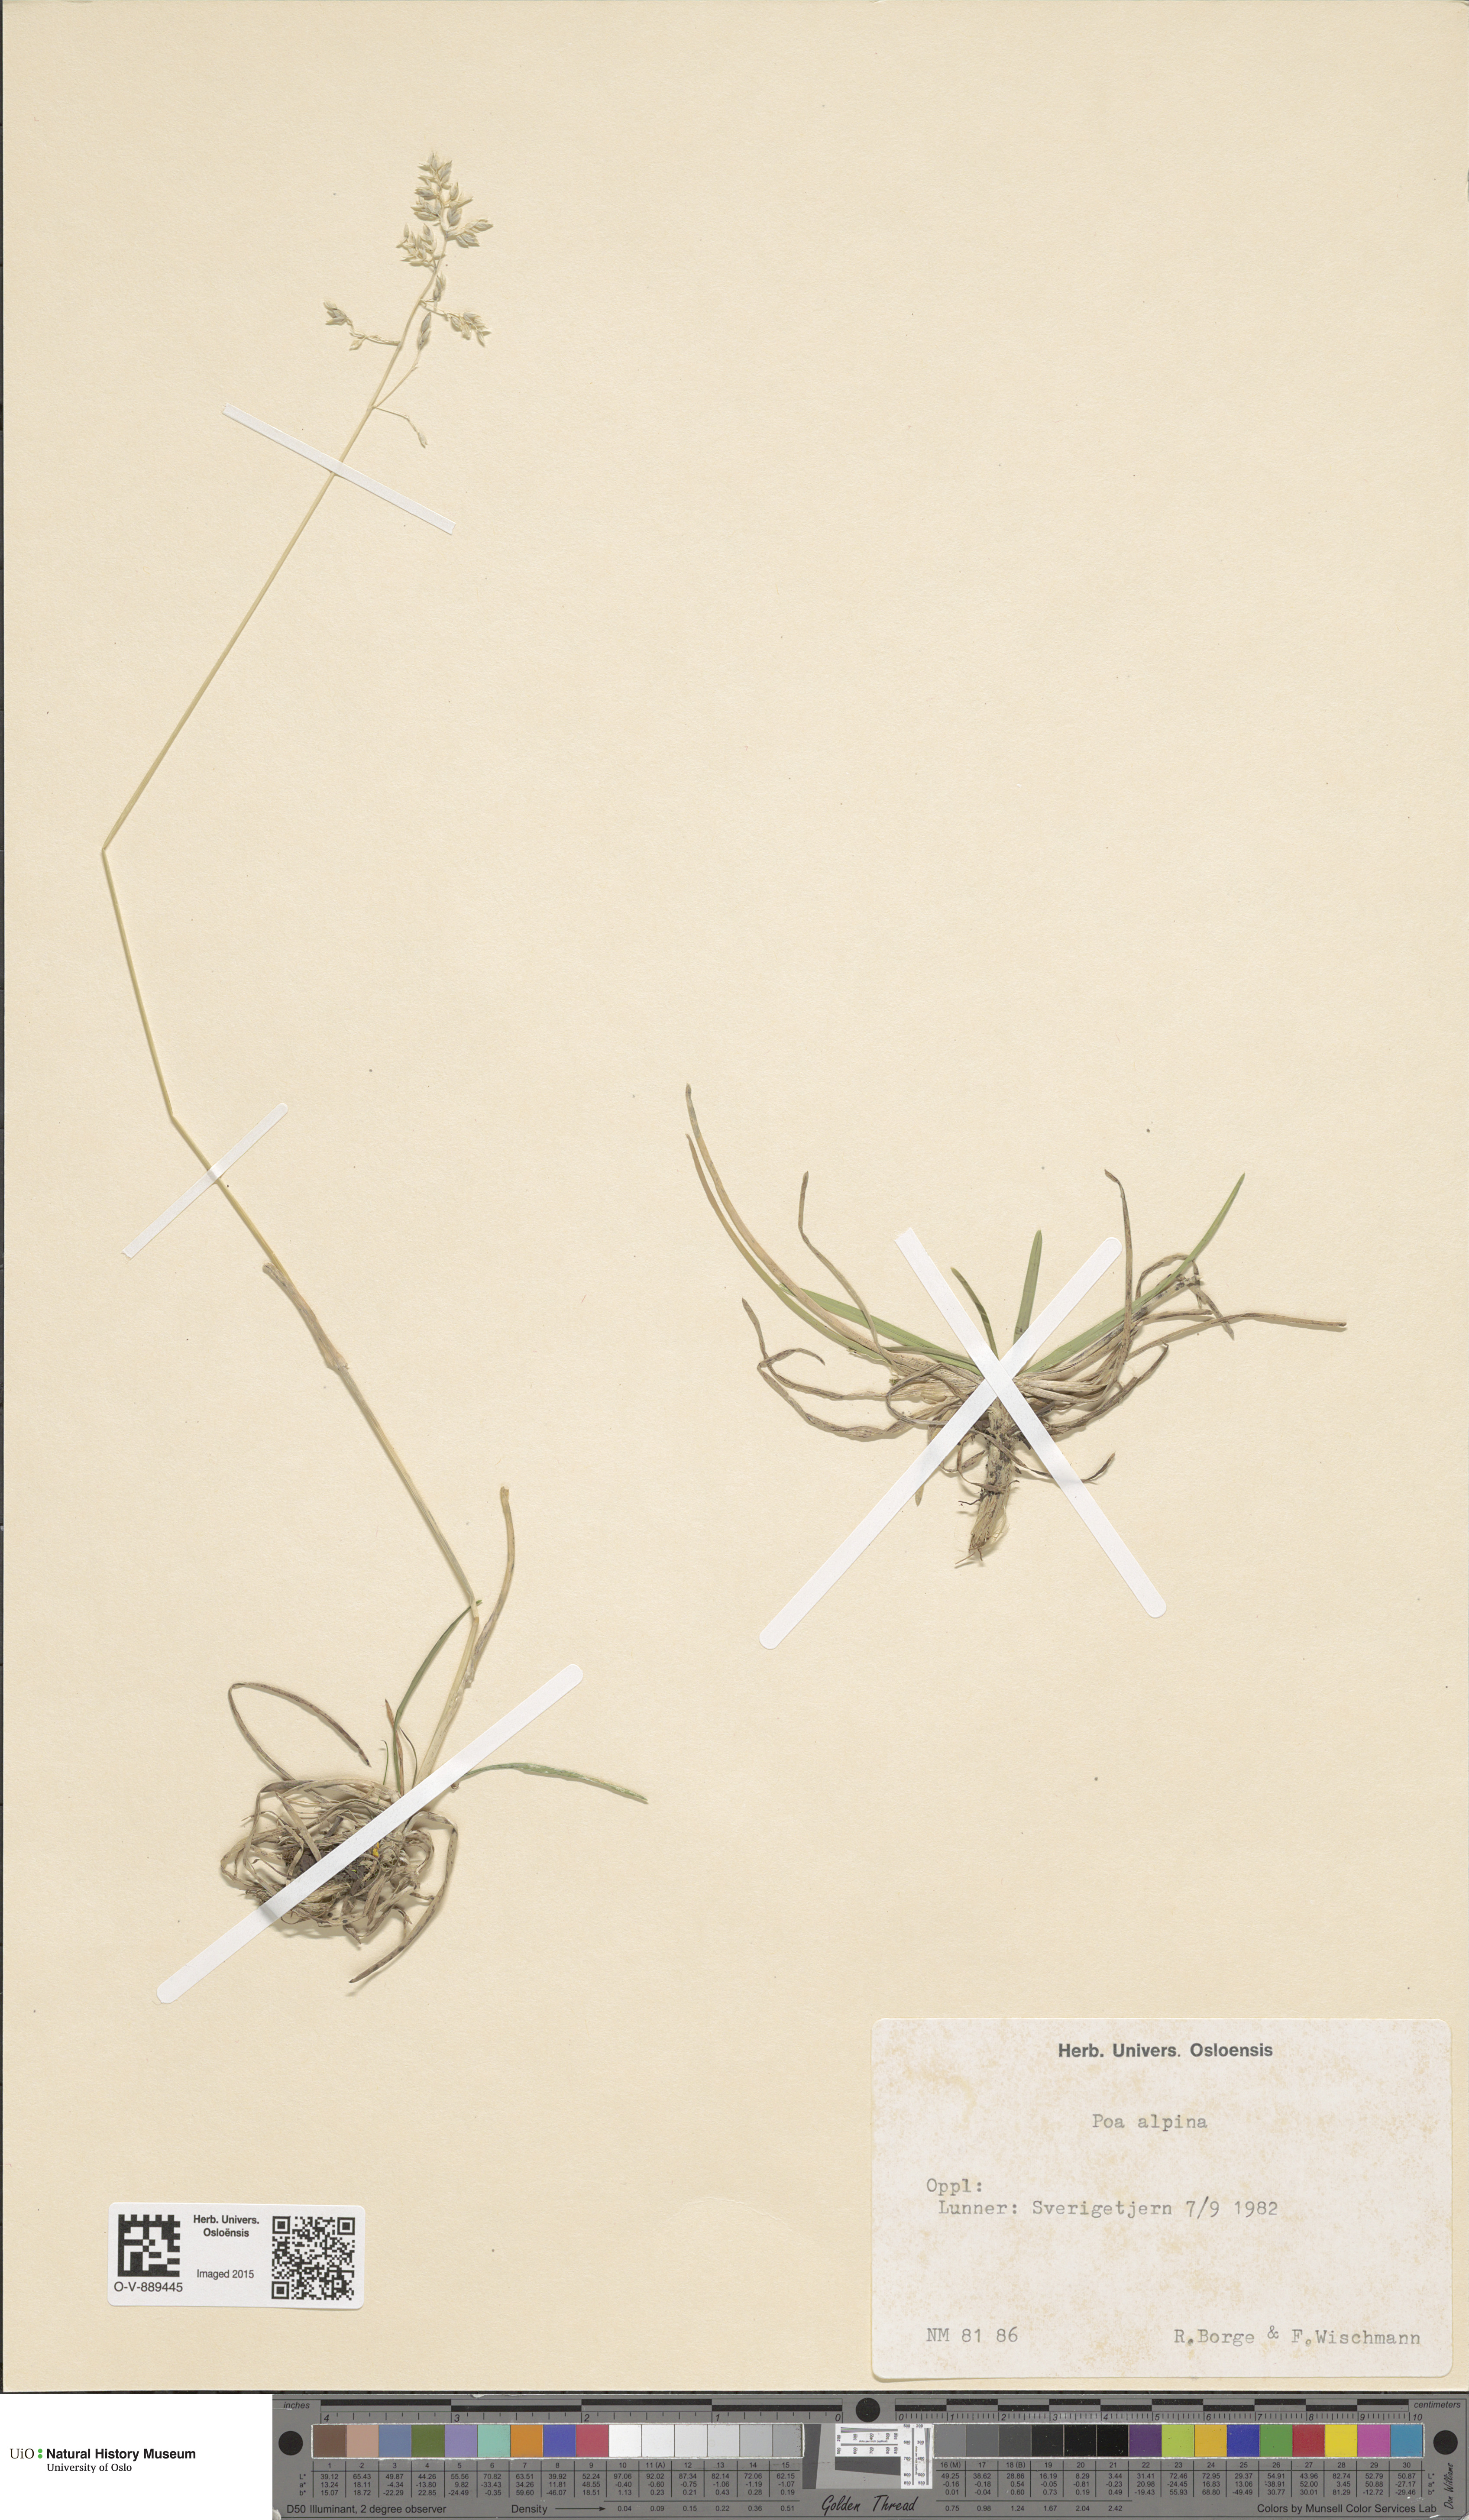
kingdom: Plantae
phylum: Tracheophyta
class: Liliopsida
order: Poales
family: Poaceae
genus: Poa
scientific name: Poa alpina
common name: Alpine bluegrass
